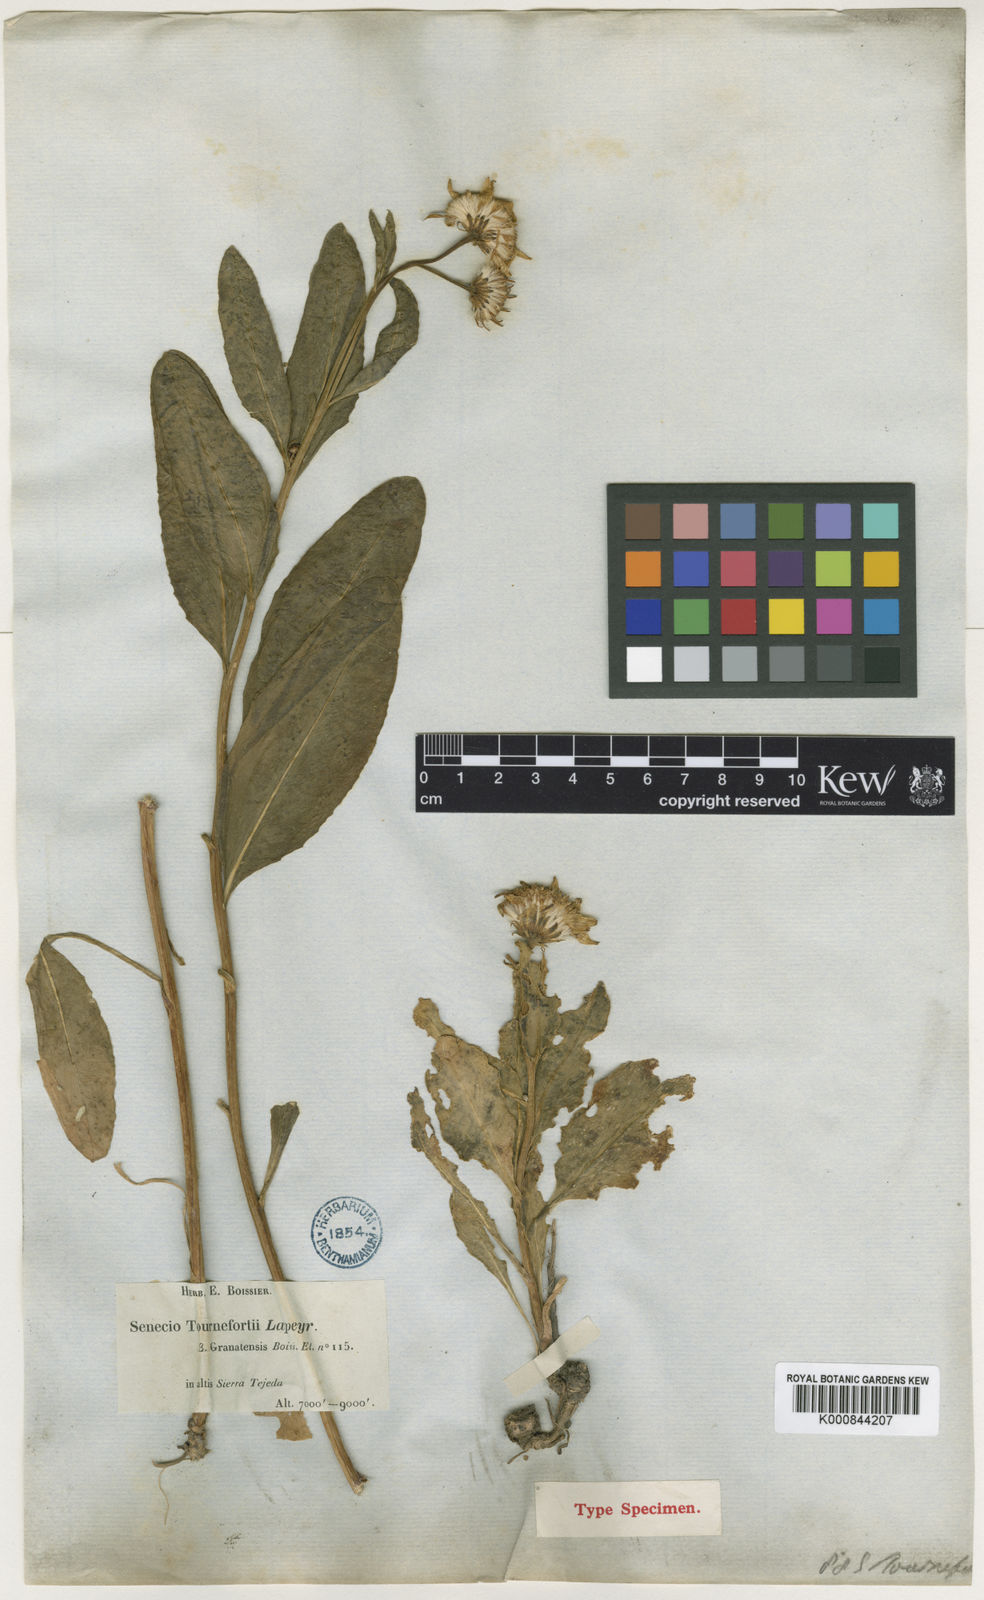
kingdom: Plantae
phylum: Tracheophyta
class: Magnoliopsida
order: Asterales
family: Asteraceae
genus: Tephroseris
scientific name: Tephroseris helenitis
